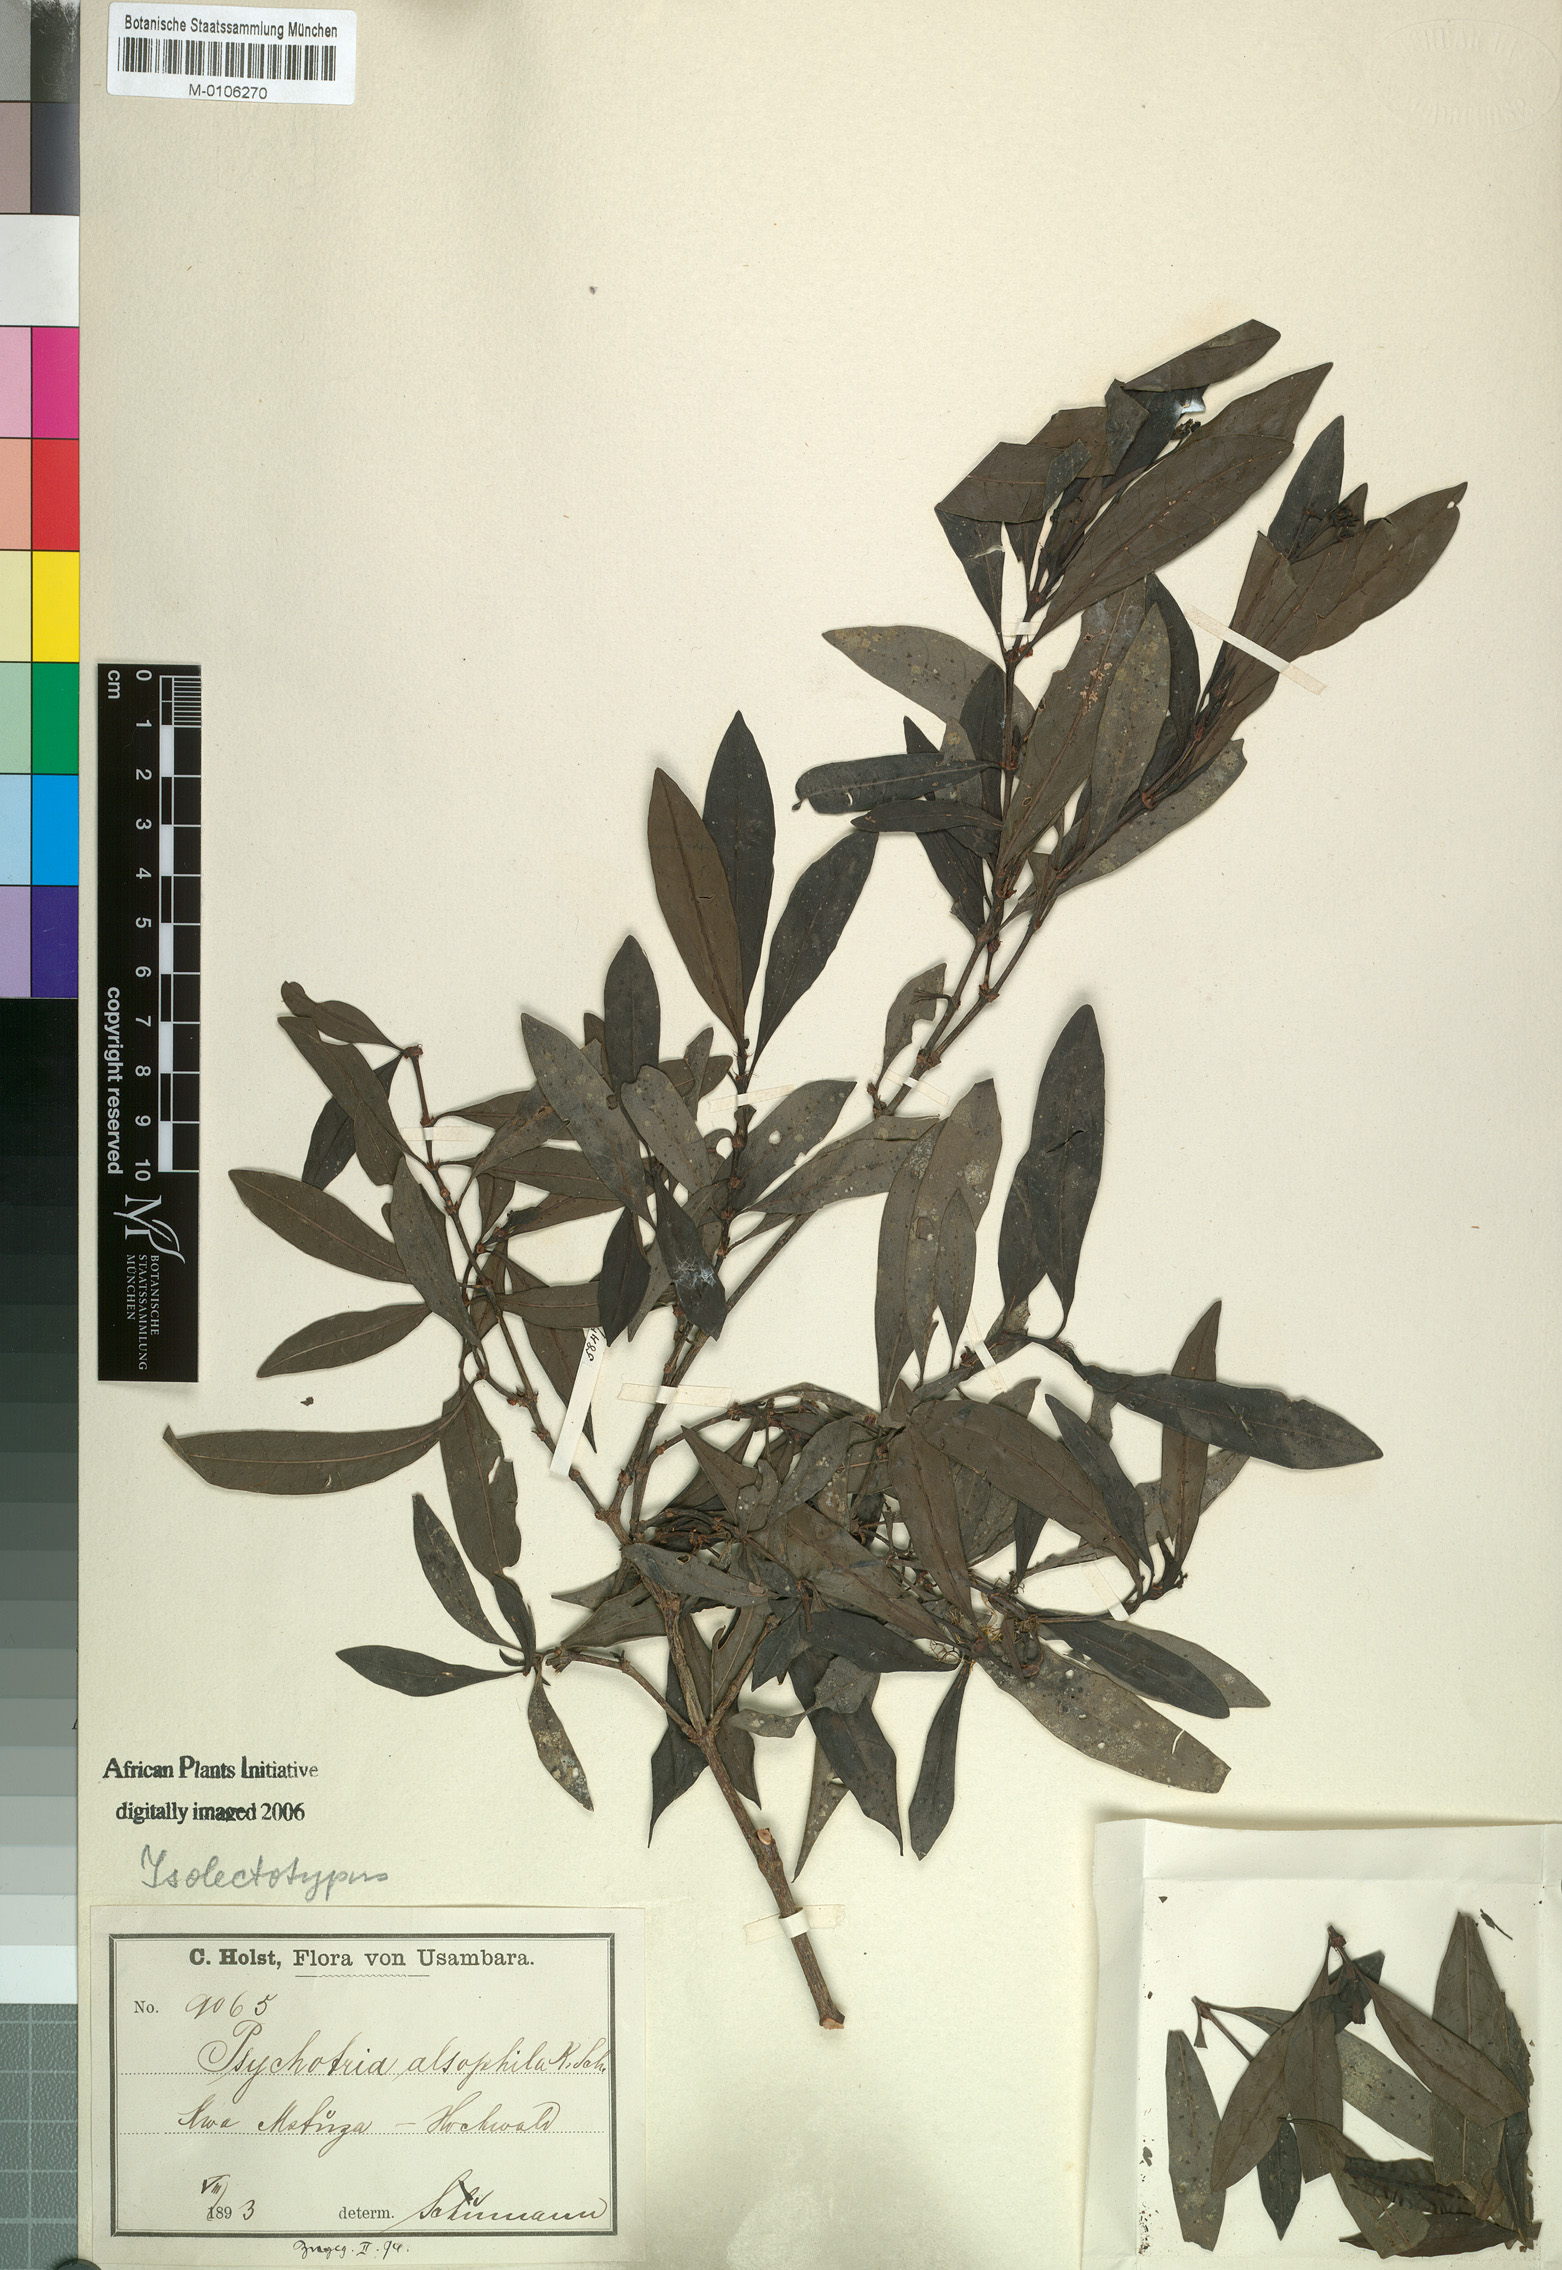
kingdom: Plantae
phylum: Tracheophyta
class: Magnoliopsida
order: Gentianales
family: Rubiaceae
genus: Psychotria
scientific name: Psychotria alsophila
